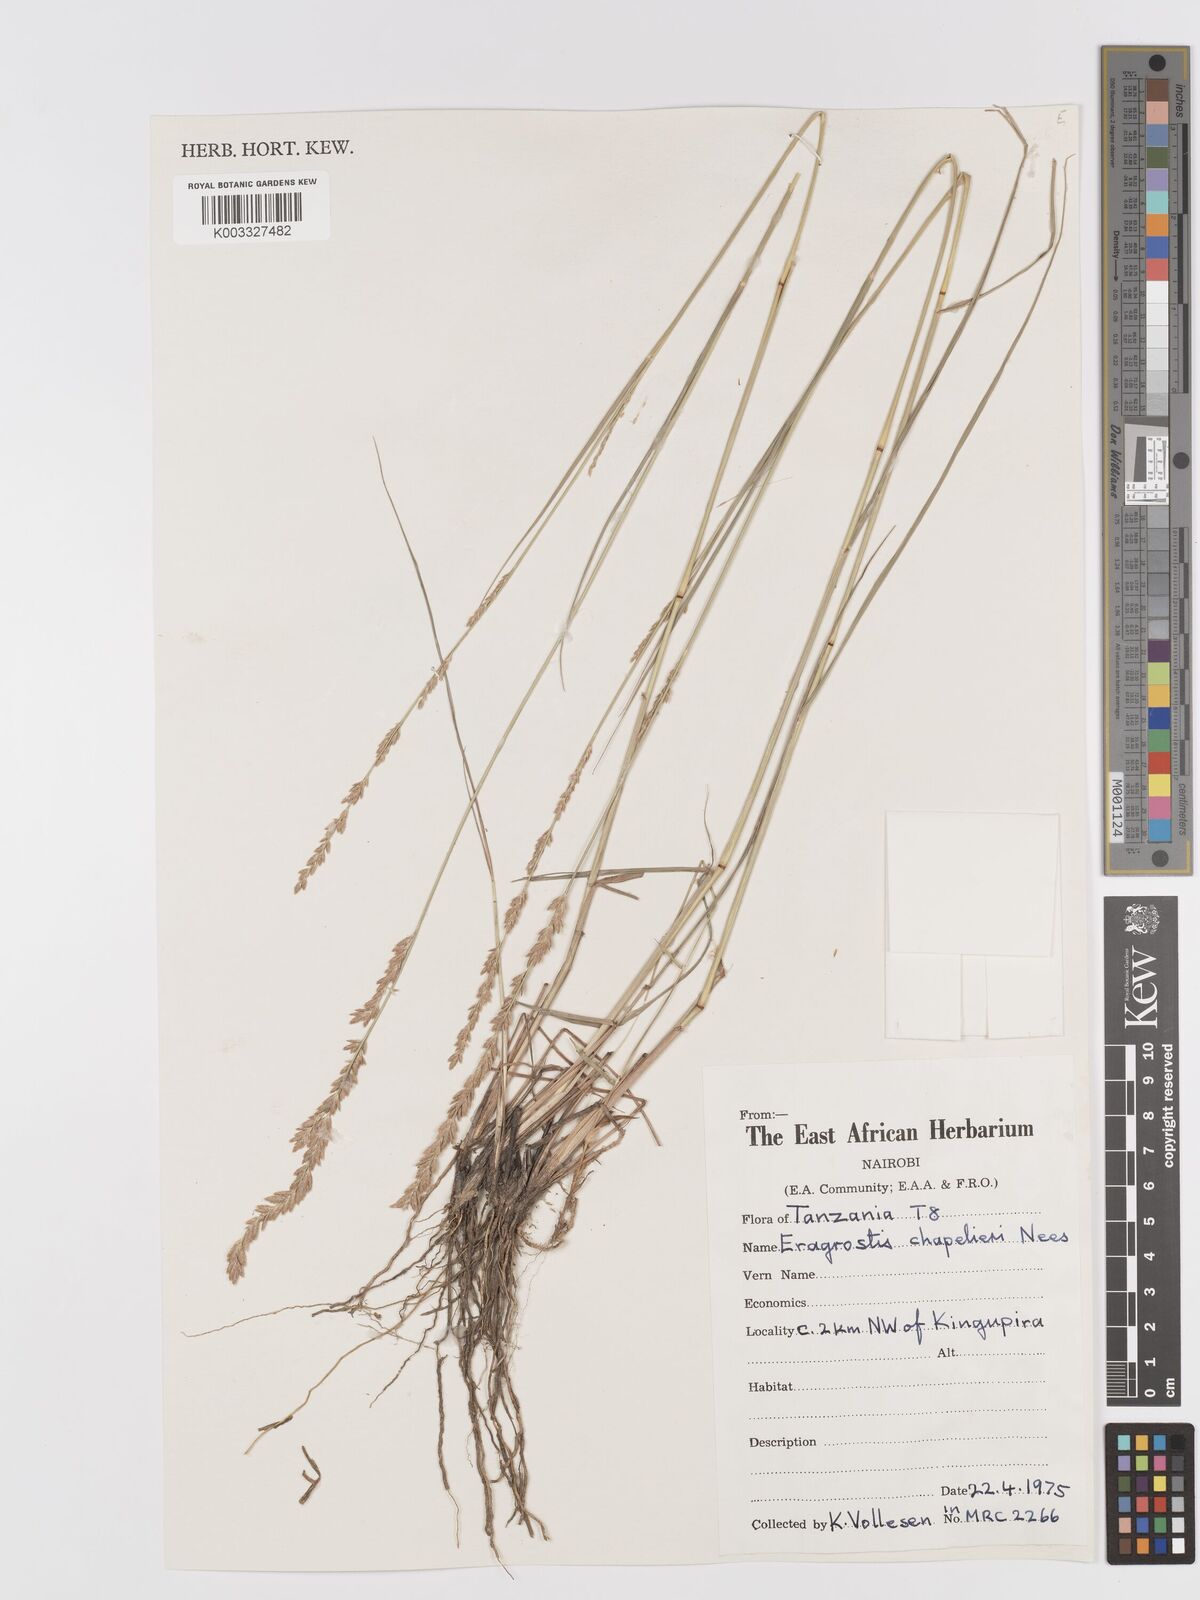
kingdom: Plantae
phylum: Tracheophyta
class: Liliopsida
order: Poales
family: Poaceae
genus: Eragrostis
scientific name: Eragrostis chapelieri
